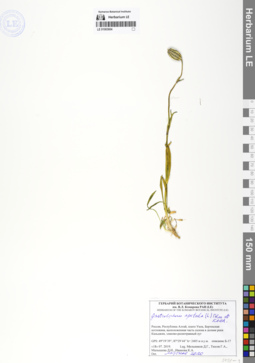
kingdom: Plantae
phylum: Tracheophyta
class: Magnoliopsida
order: Caryophyllales
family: Caryophyllaceae
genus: Silene
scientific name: Silene wahlbergella
